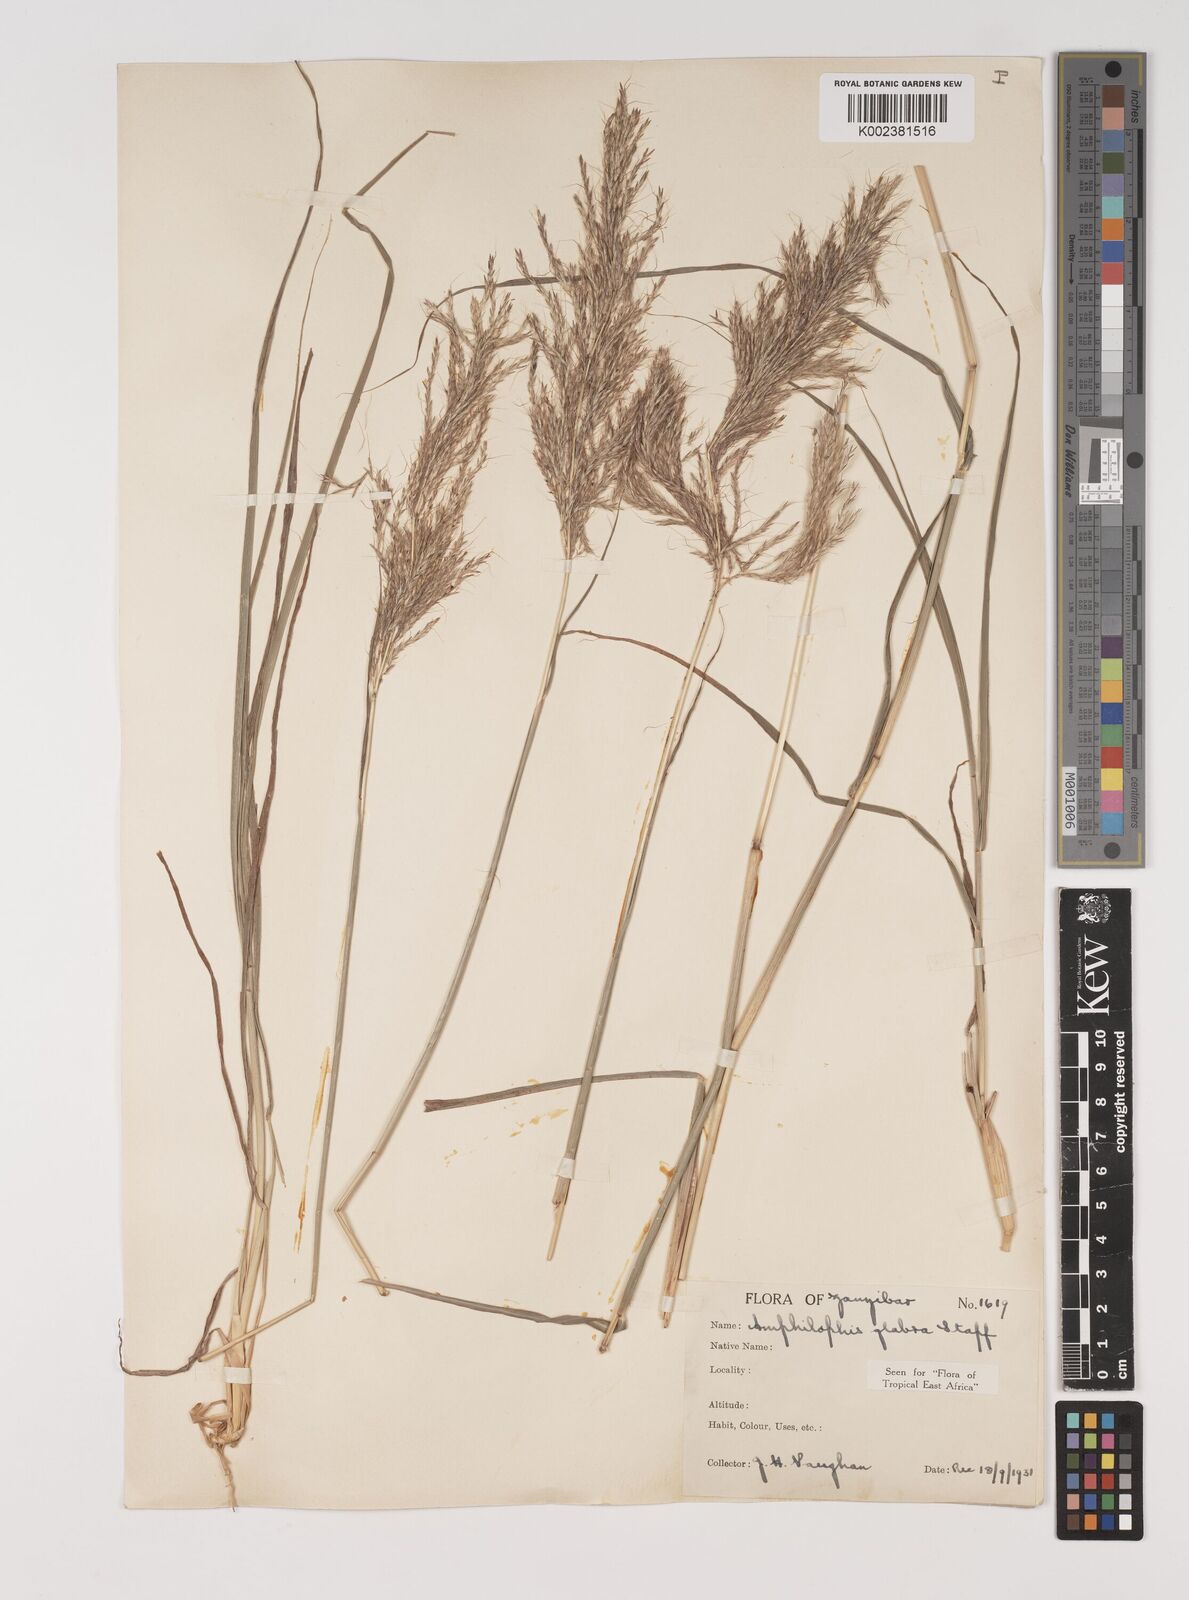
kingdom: Plantae
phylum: Tracheophyta
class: Liliopsida
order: Poales
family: Poaceae
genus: Bothriochloa
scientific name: Bothriochloa
